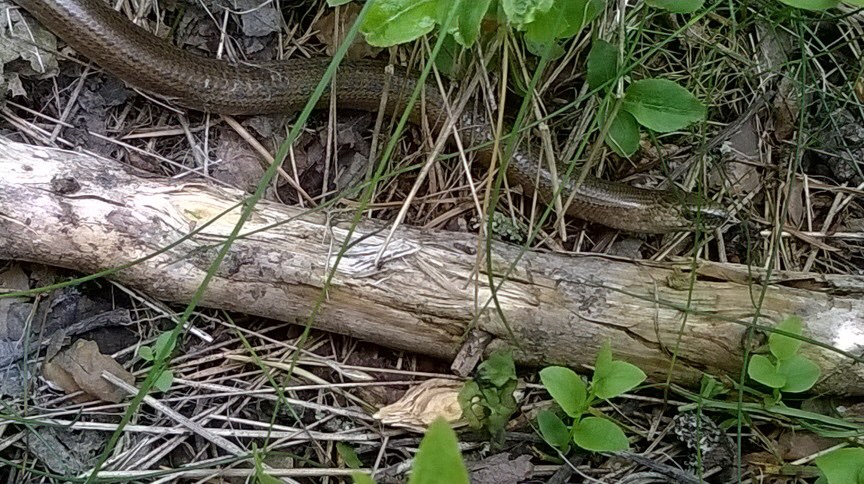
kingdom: Animalia
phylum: Chordata
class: Squamata
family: Anguidae
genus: Anguis
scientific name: Anguis colchica
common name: Slow worm
